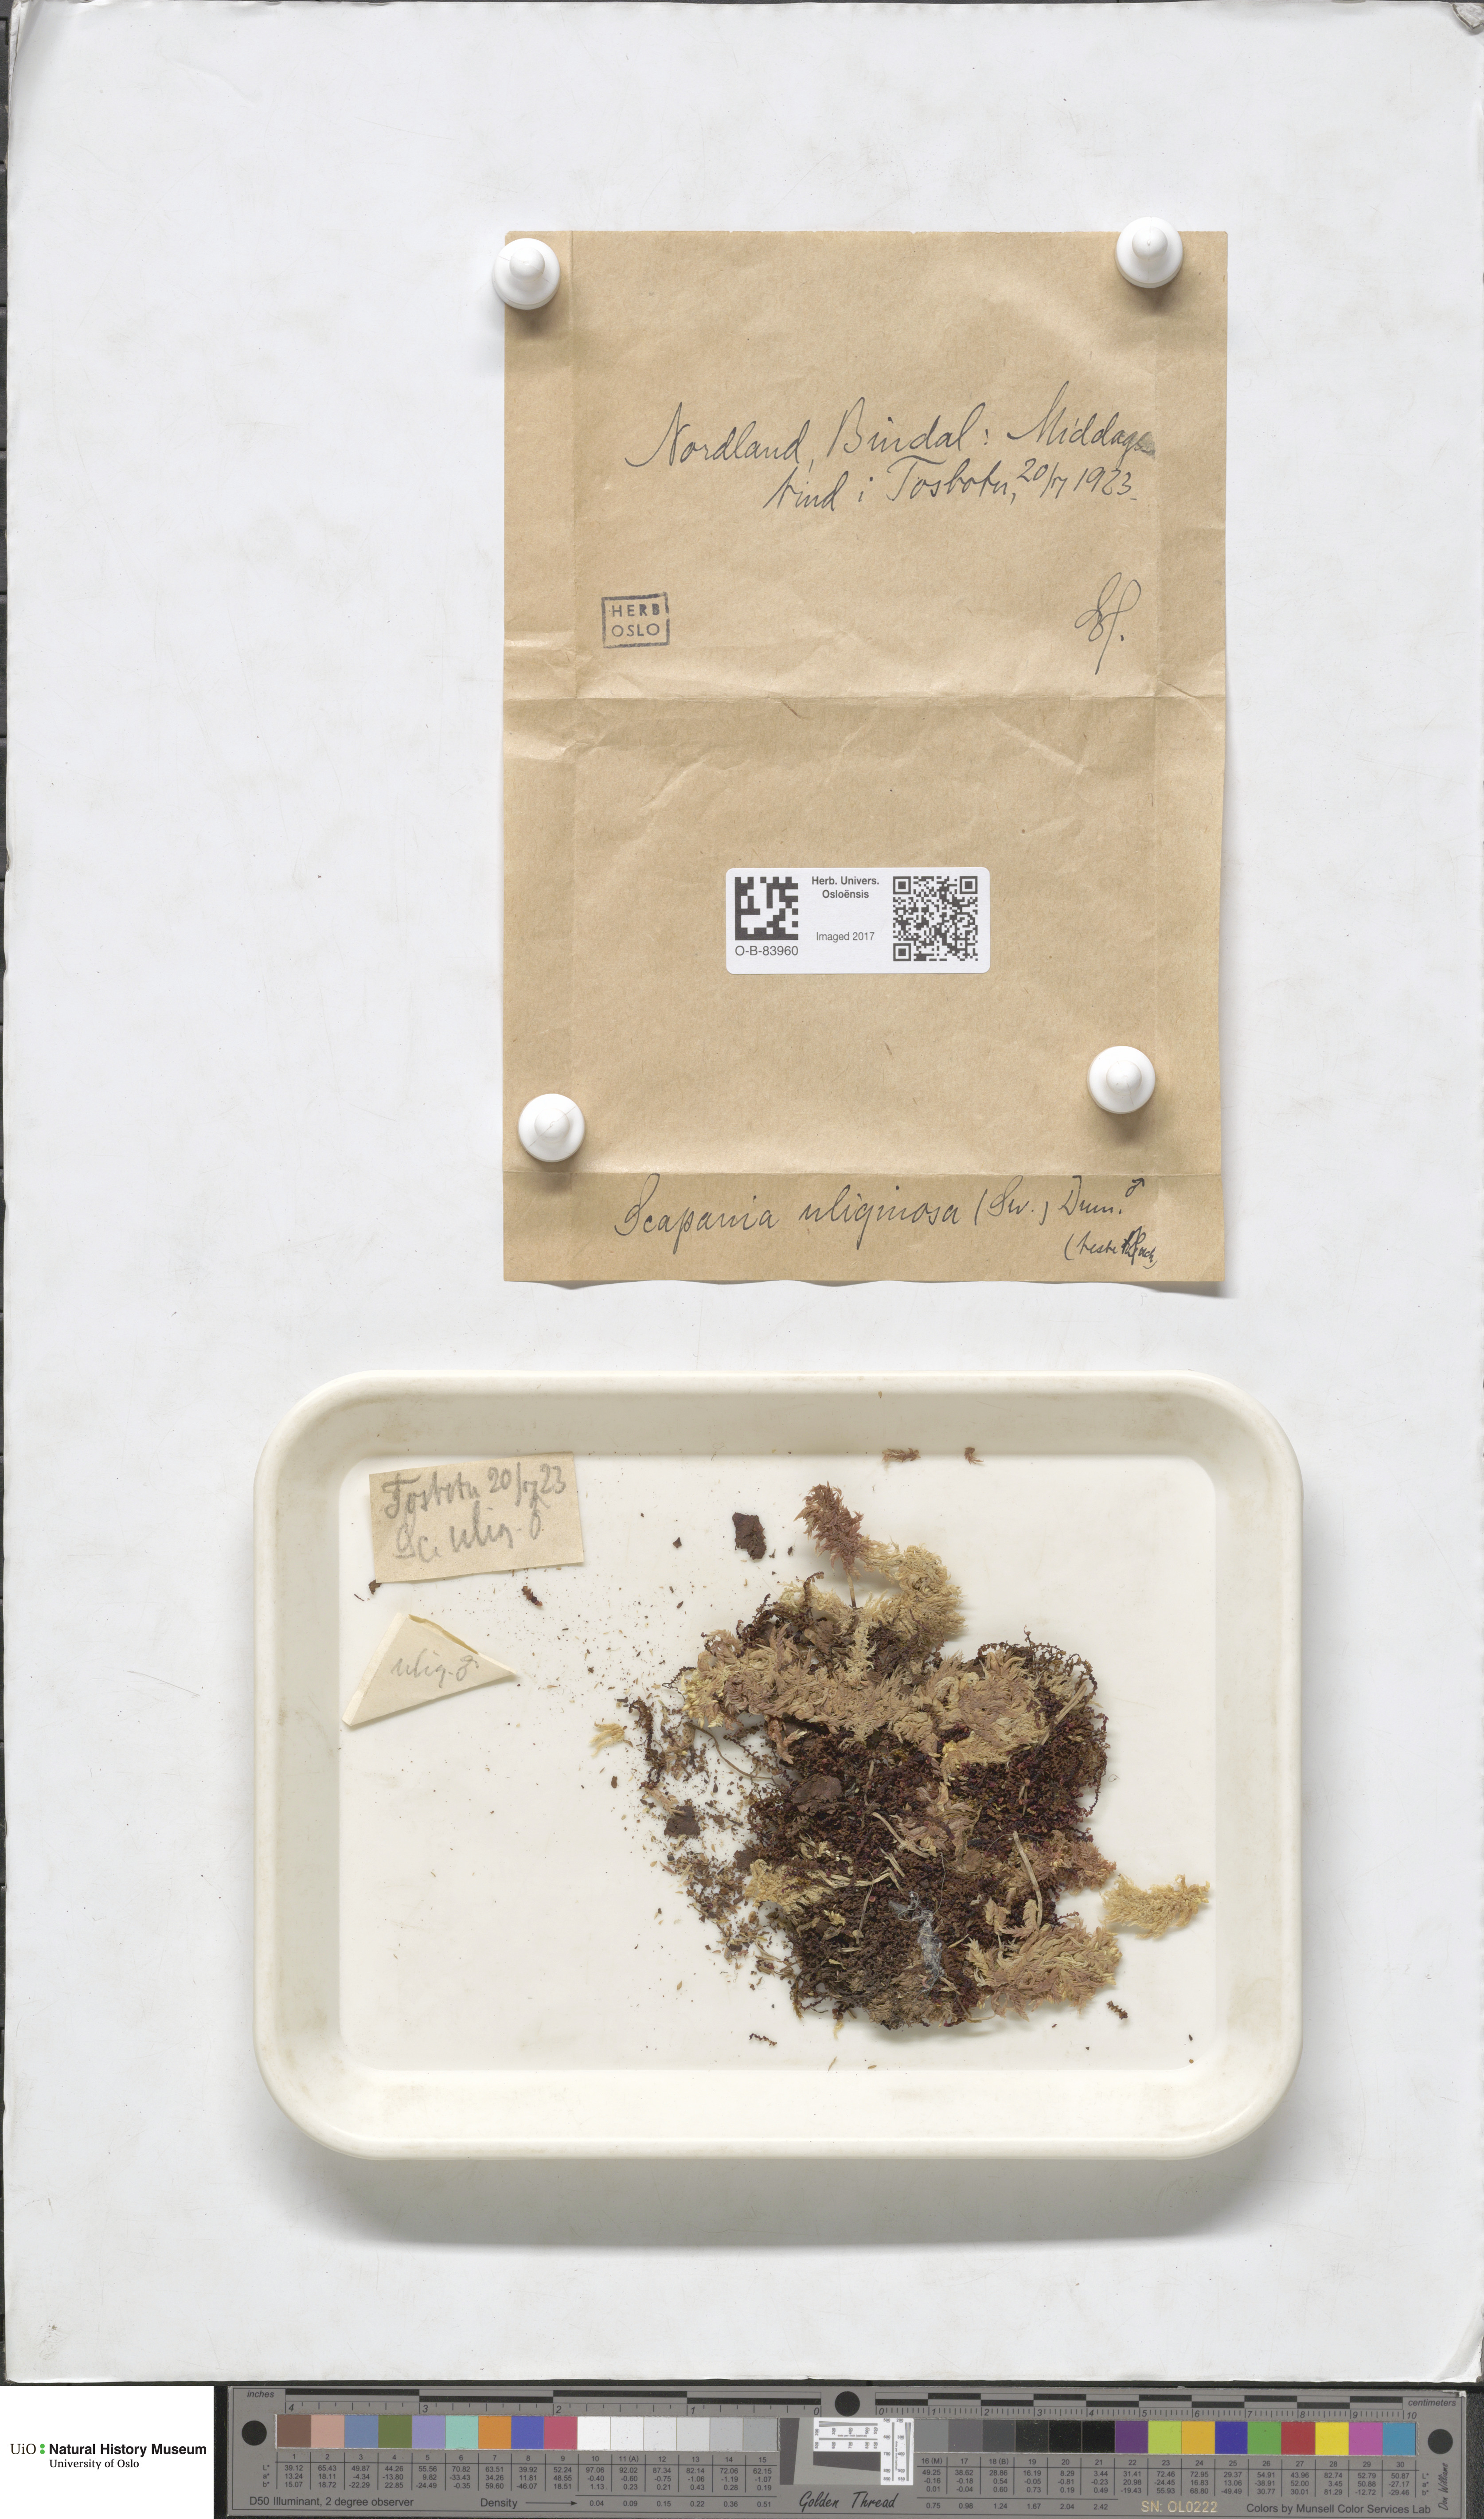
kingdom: Plantae
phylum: Marchantiophyta
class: Jungermanniopsida
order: Jungermanniales
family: Scapaniaceae
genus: Scapania
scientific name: Scapania uliginosa
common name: Marsh earwort
